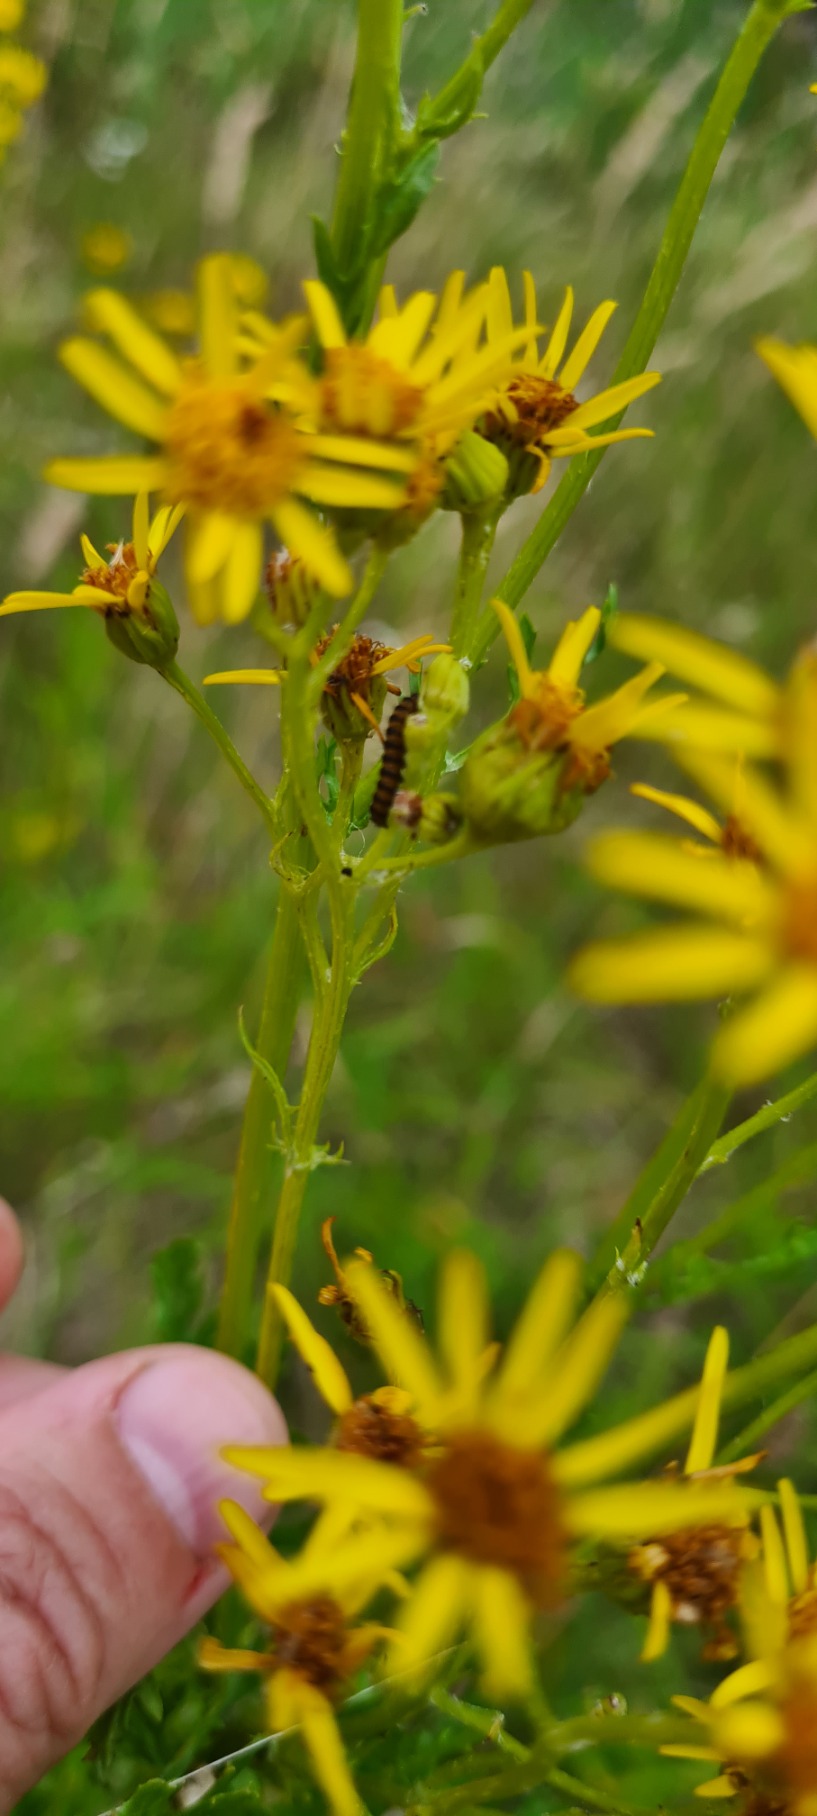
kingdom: Plantae
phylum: Tracheophyta
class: Magnoliopsida
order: Asterales
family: Asteraceae
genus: Jacobaea
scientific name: Jacobaea vulgaris
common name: Eng-brandbæger
